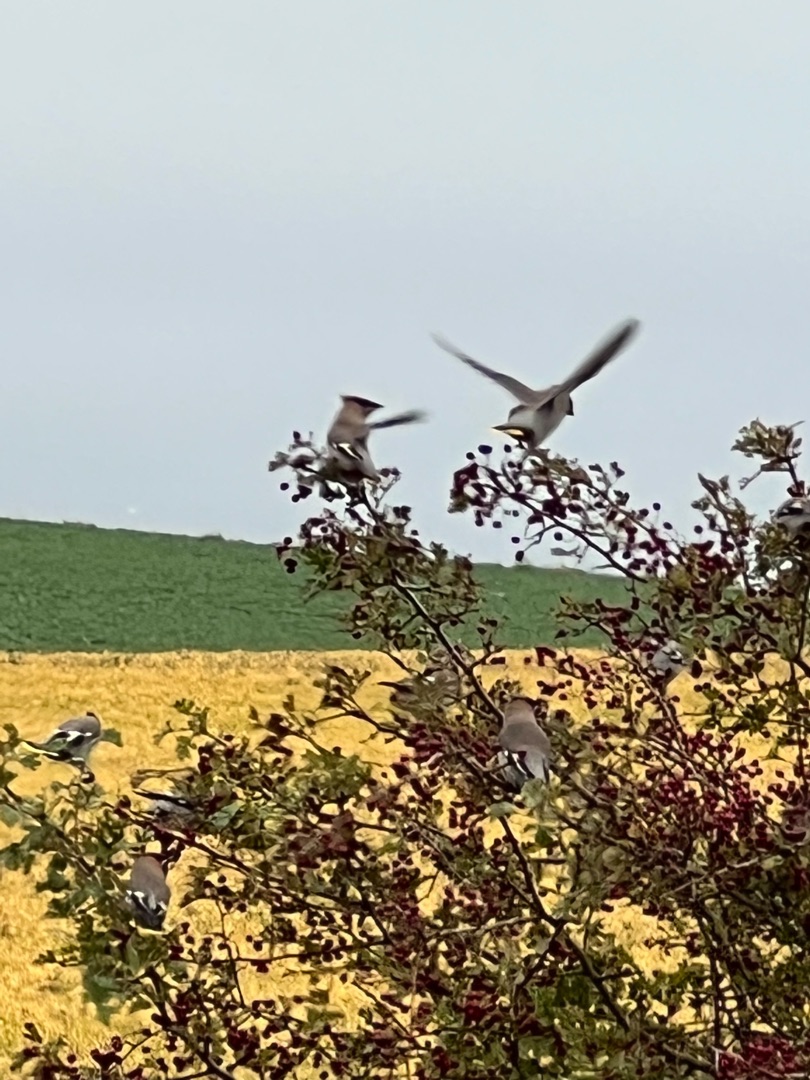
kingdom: Animalia
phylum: Chordata
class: Aves
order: Passeriformes
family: Bombycillidae
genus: Bombycilla
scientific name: Bombycilla garrulus
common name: Silkehale
